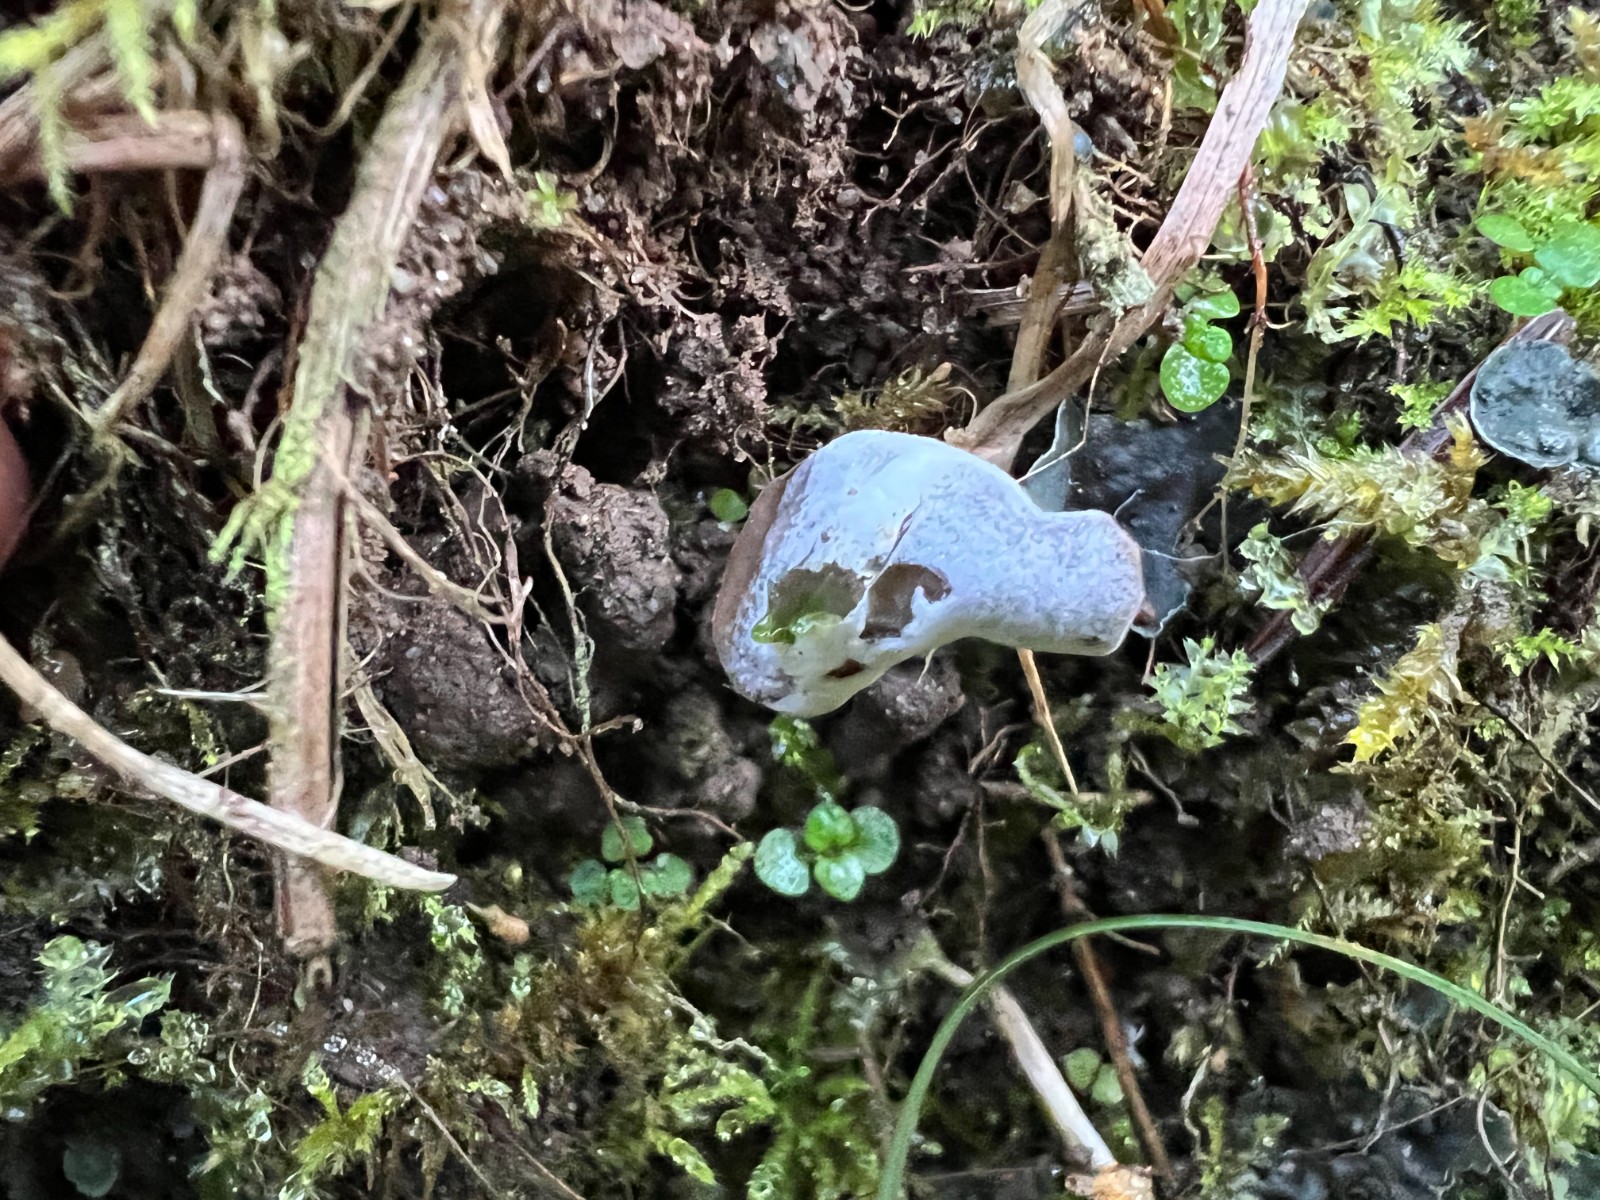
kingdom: Fungi
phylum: Ascomycota
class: Sordariomycetes
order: Hypocreales
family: Hypocreaceae
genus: Hypomyces
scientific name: Hypomyces cervinus
